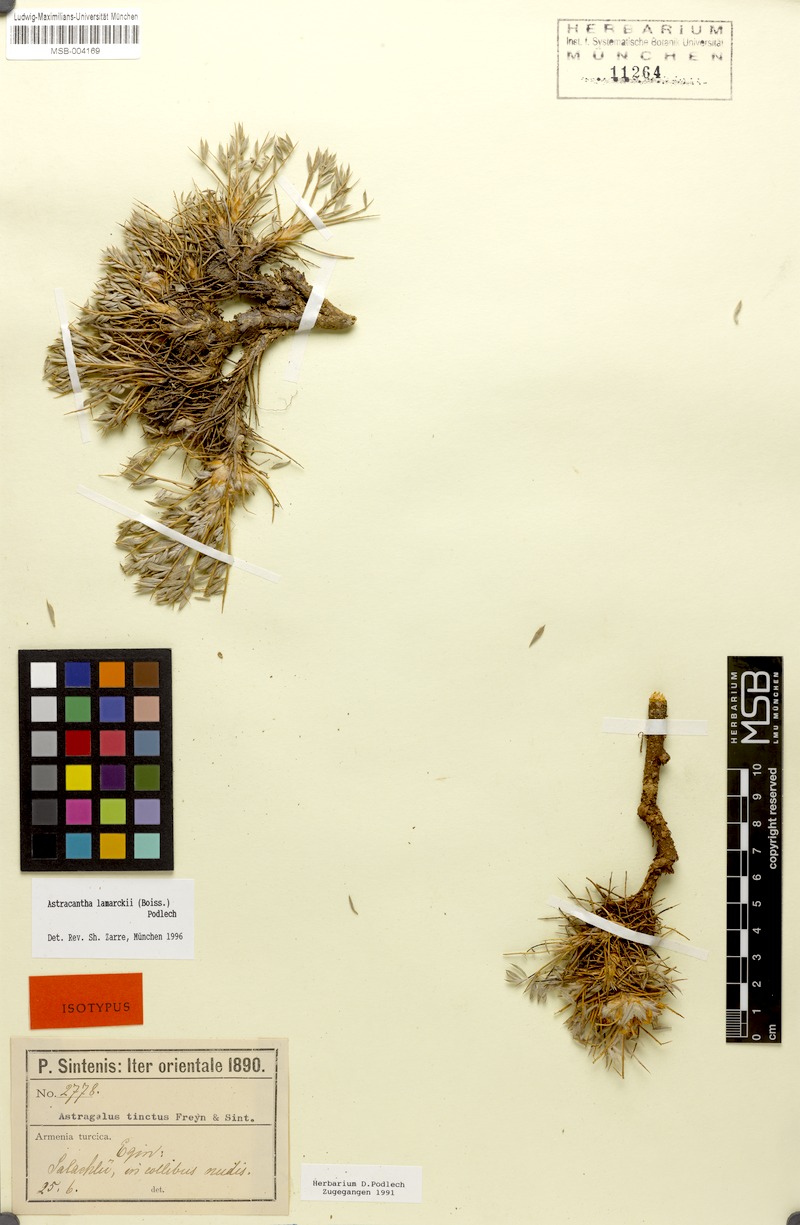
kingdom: Plantae
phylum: Tracheophyta
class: Magnoliopsida
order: Fabales
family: Fabaceae
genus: Astragalus
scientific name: Astragalus lamarckii
